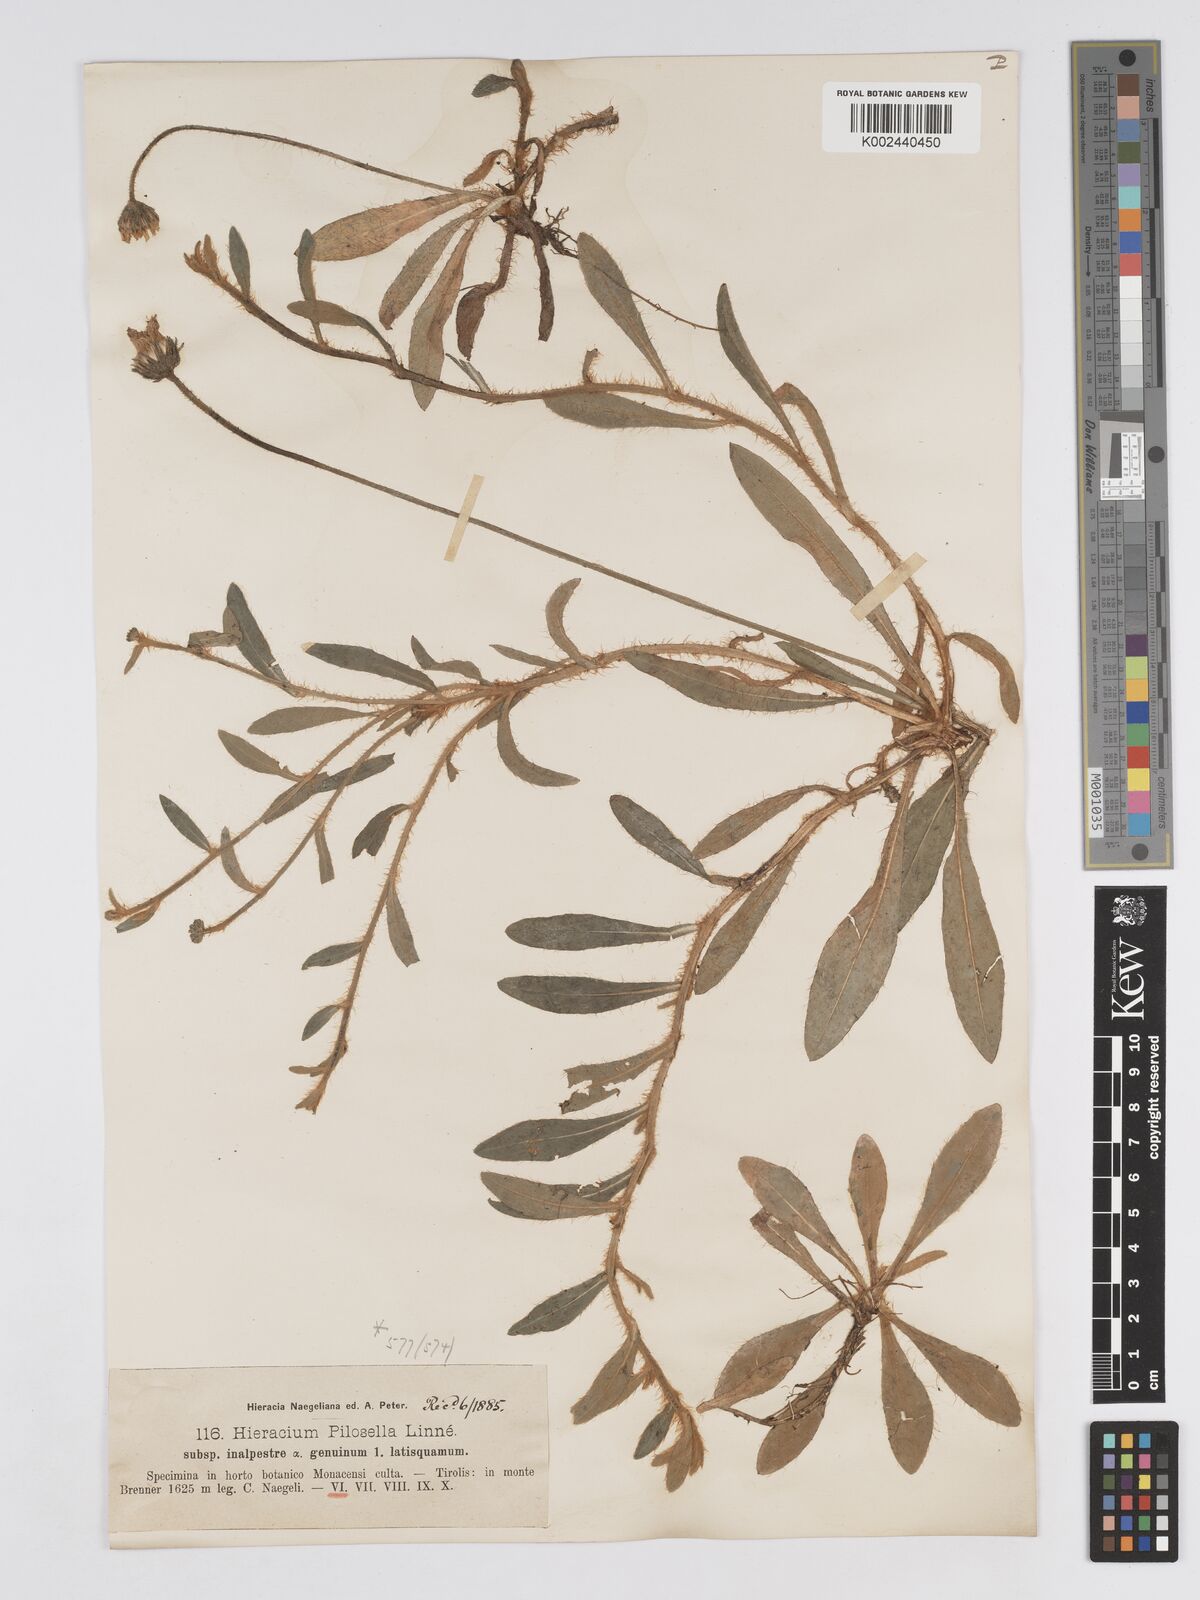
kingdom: Plantae
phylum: Tracheophyta
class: Magnoliopsida
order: Asterales
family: Asteraceae
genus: Pilosella
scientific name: Pilosella officinarum
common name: Mouse-ear hawkweed
